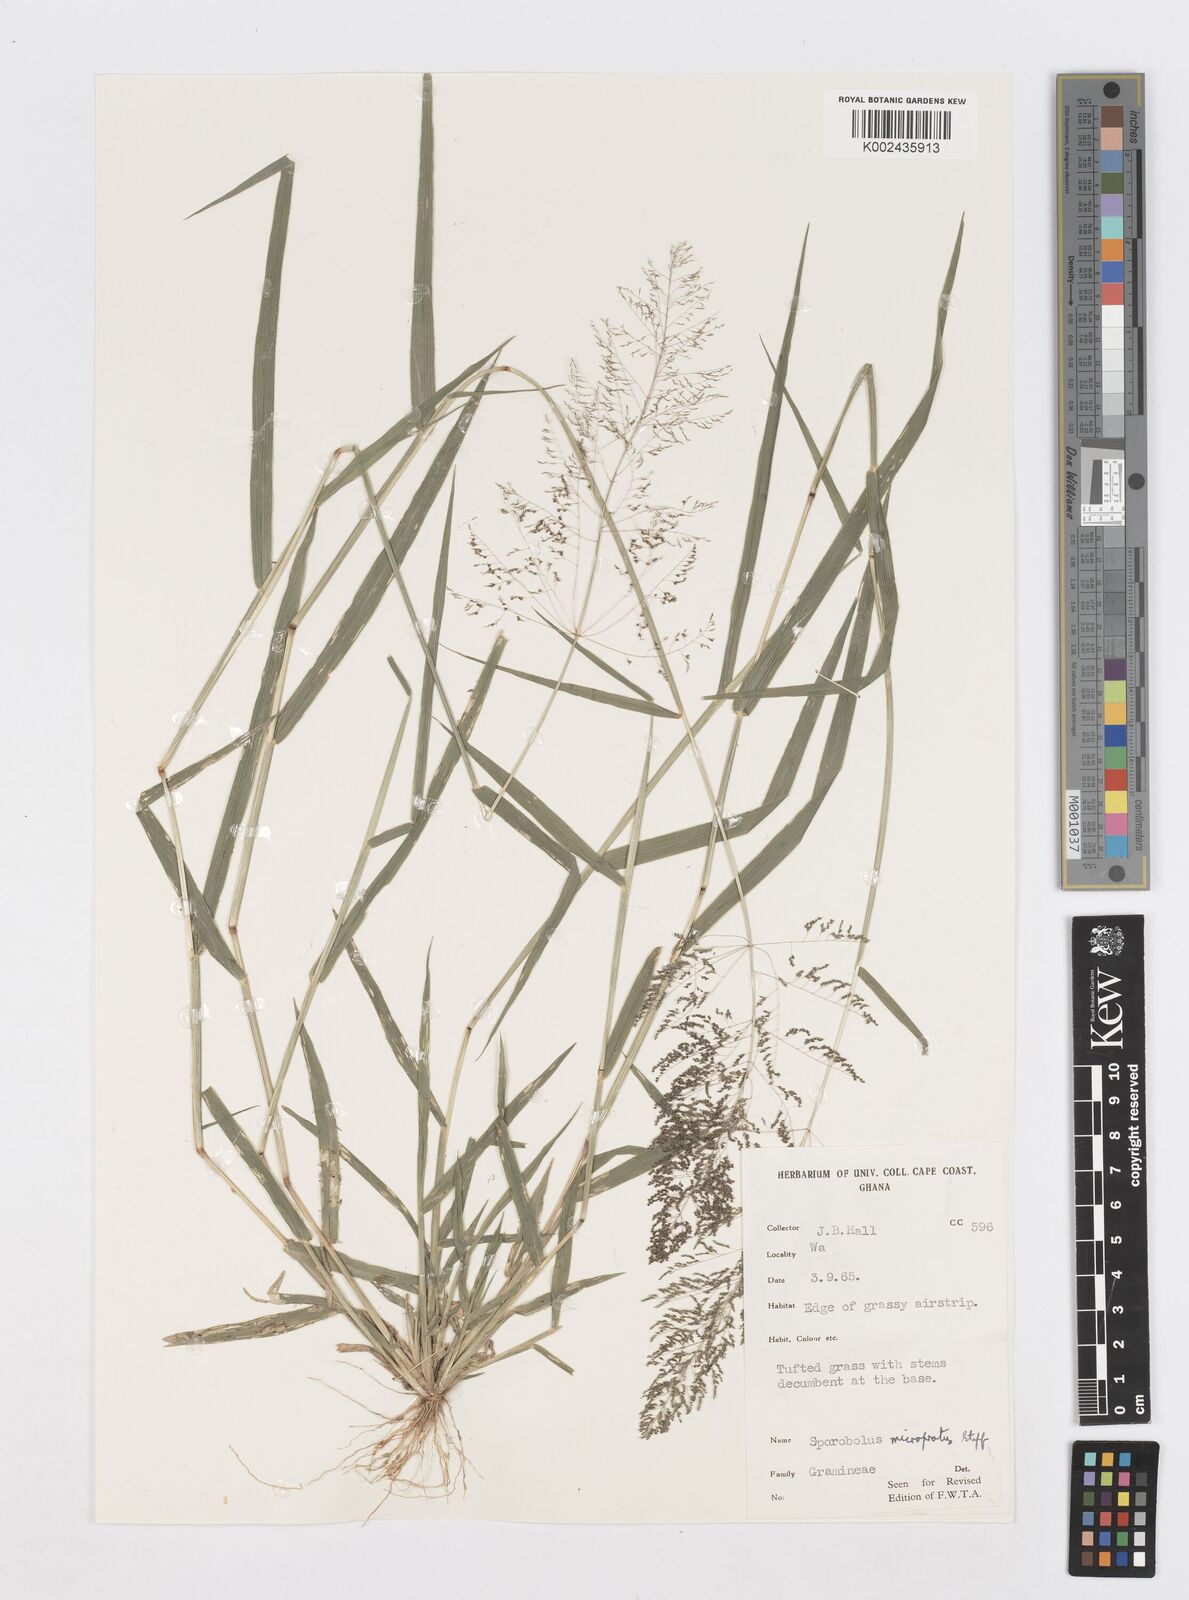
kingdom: Plantae
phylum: Tracheophyta
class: Liliopsida
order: Poales
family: Poaceae
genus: Sporobolus
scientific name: Sporobolus microprotus
